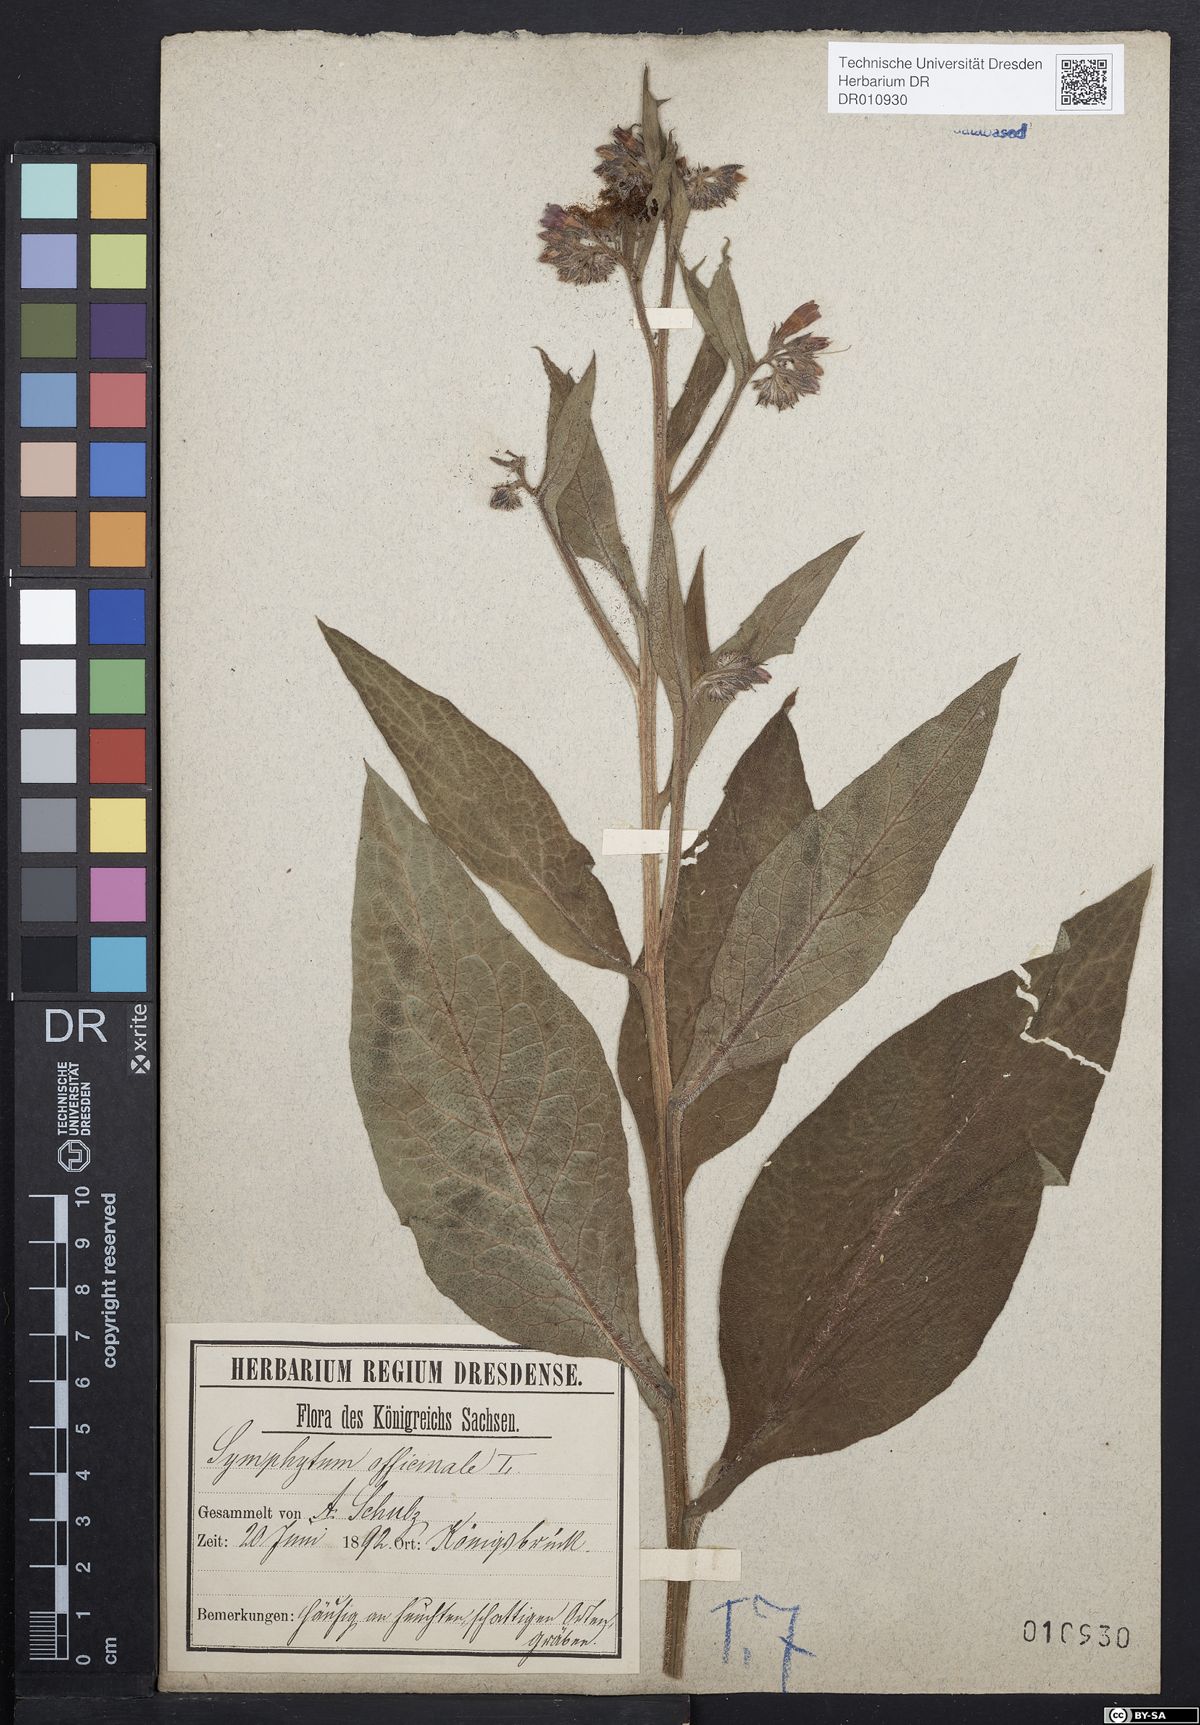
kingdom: Plantae
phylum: Tracheophyta
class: Magnoliopsida
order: Boraginales
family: Boraginaceae
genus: Symphytum
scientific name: Symphytum officinale
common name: Common comfrey
